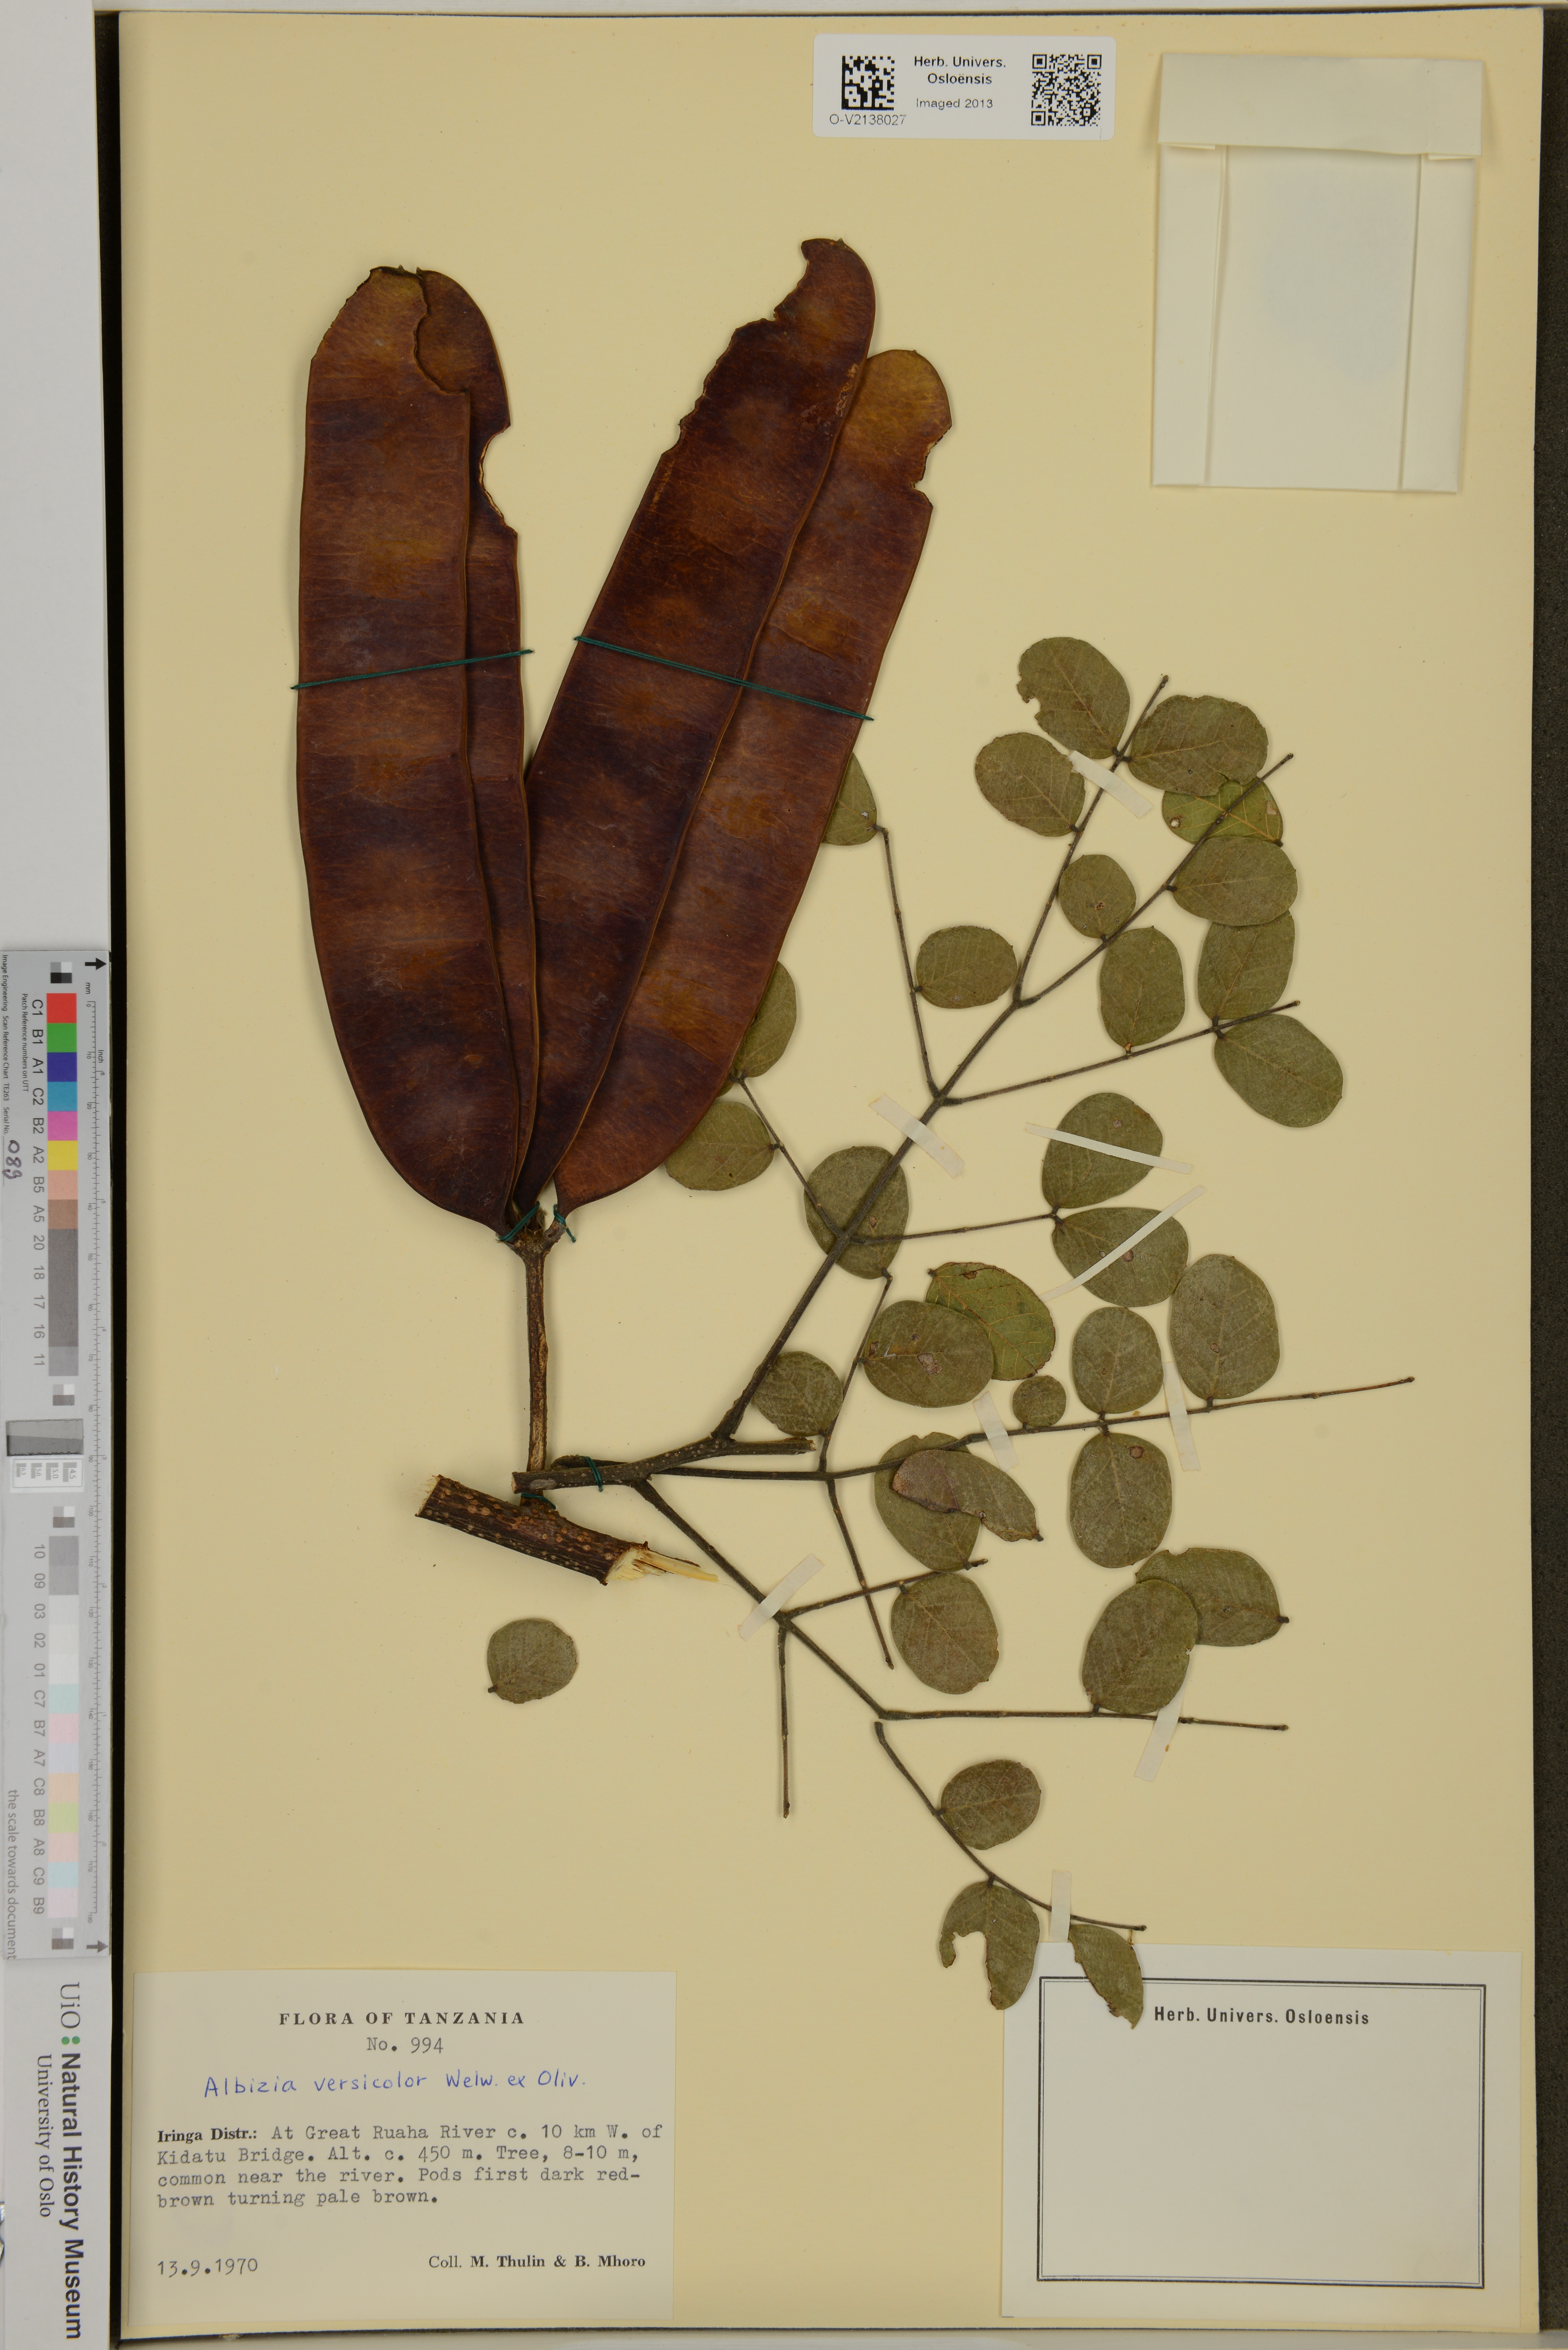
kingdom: Plantae
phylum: Tracheophyta
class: Magnoliopsida
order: Fabales
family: Fabaceae
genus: Albizia
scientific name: Albizia versicolor
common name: Poisonpod
